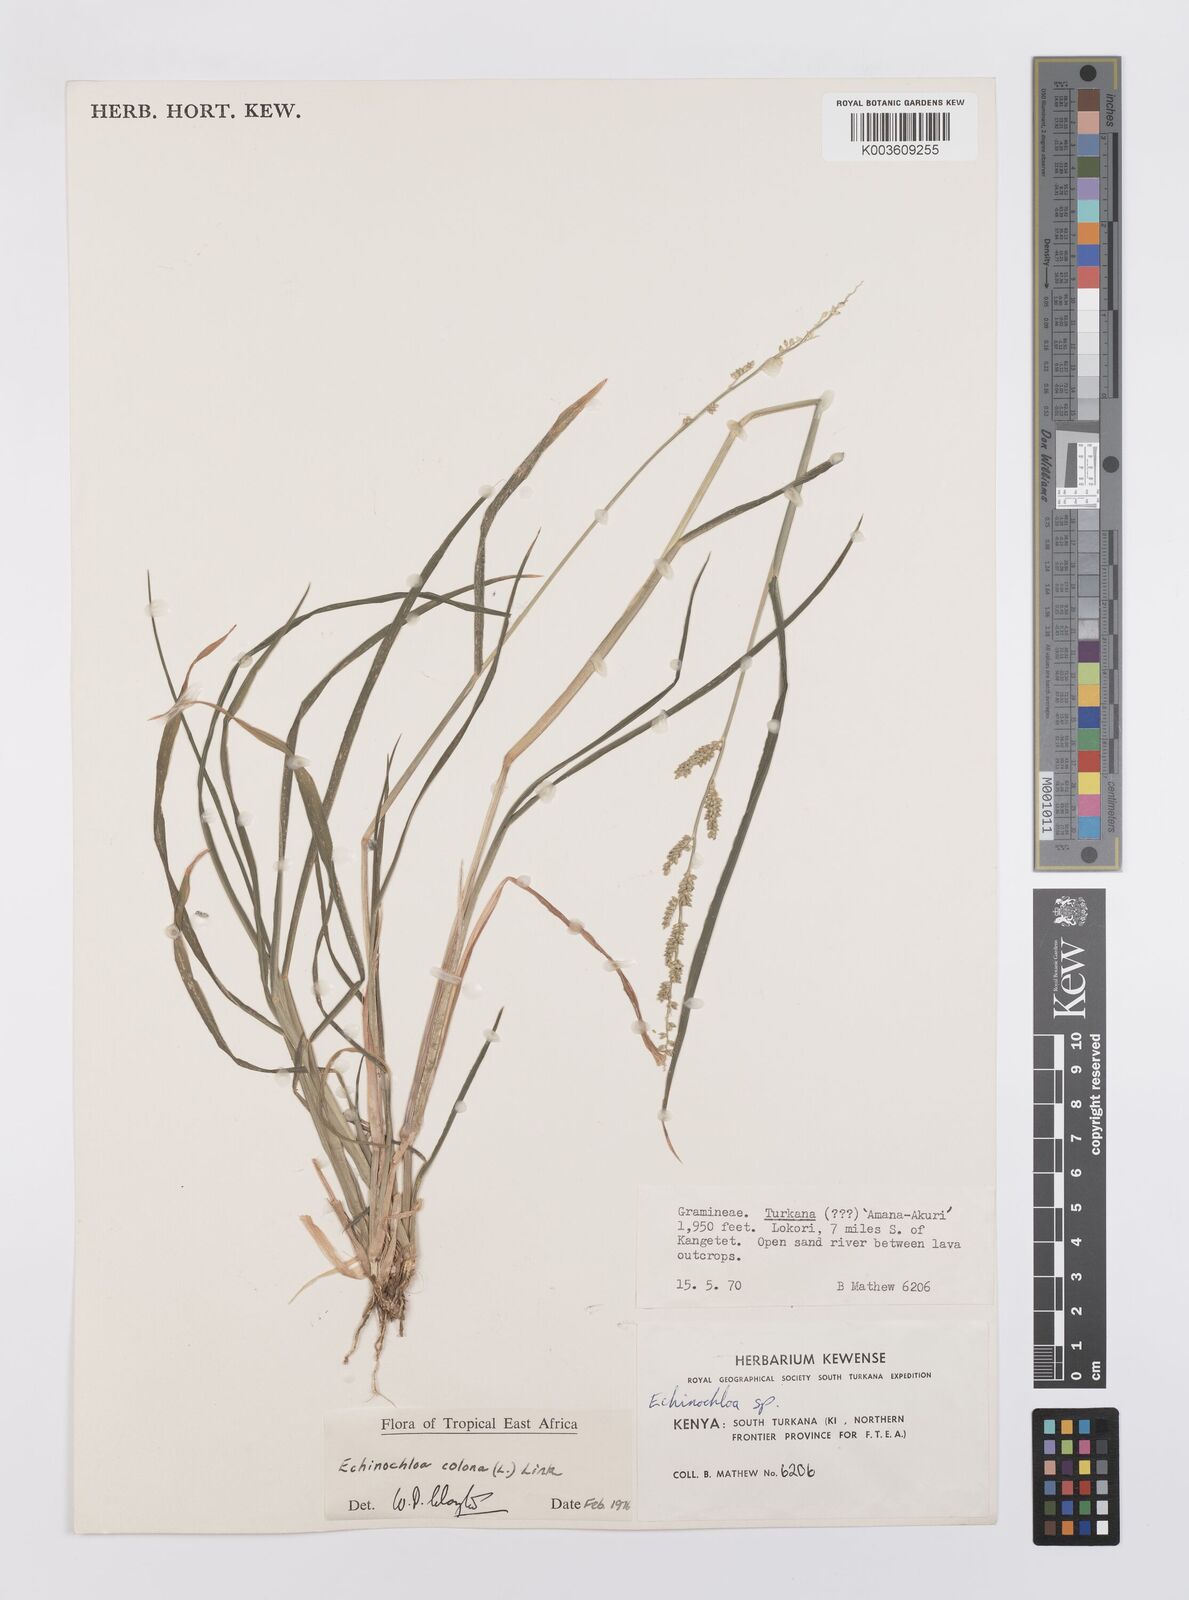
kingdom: Plantae
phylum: Tracheophyta
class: Liliopsida
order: Poales
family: Poaceae
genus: Echinochloa
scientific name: Echinochloa colonum
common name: Jungle rice
